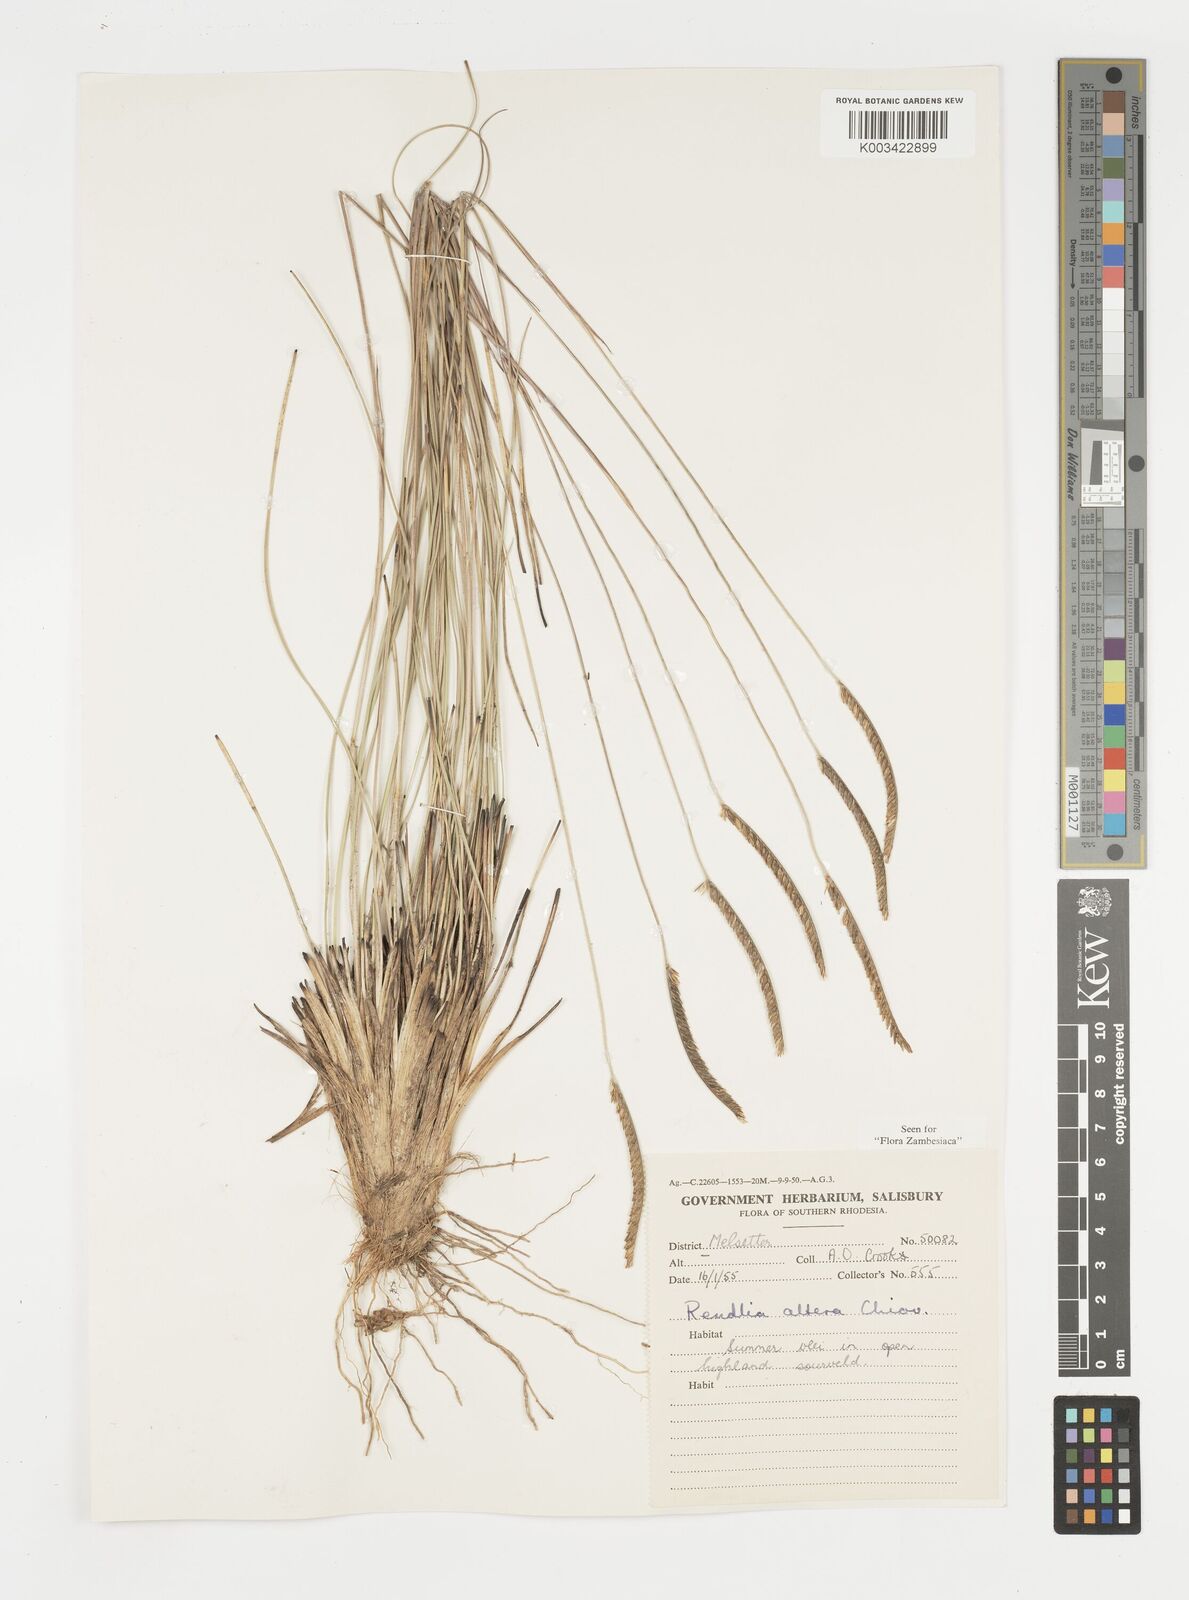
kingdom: Plantae
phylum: Tracheophyta
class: Liliopsida
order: Poales
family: Poaceae
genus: Microchloa
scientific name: Microchloa altera
